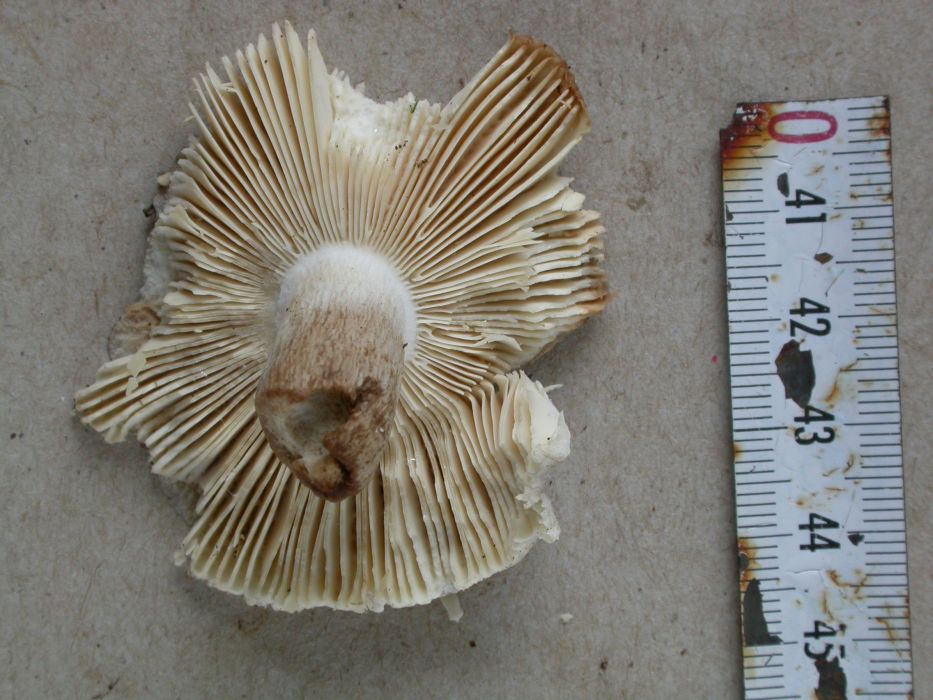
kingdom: Fungi
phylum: Basidiomycota
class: Agaricomycetes
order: Russulales
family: Russulaceae
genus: Russula
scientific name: Russula parazurea
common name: blågrå skørhat
